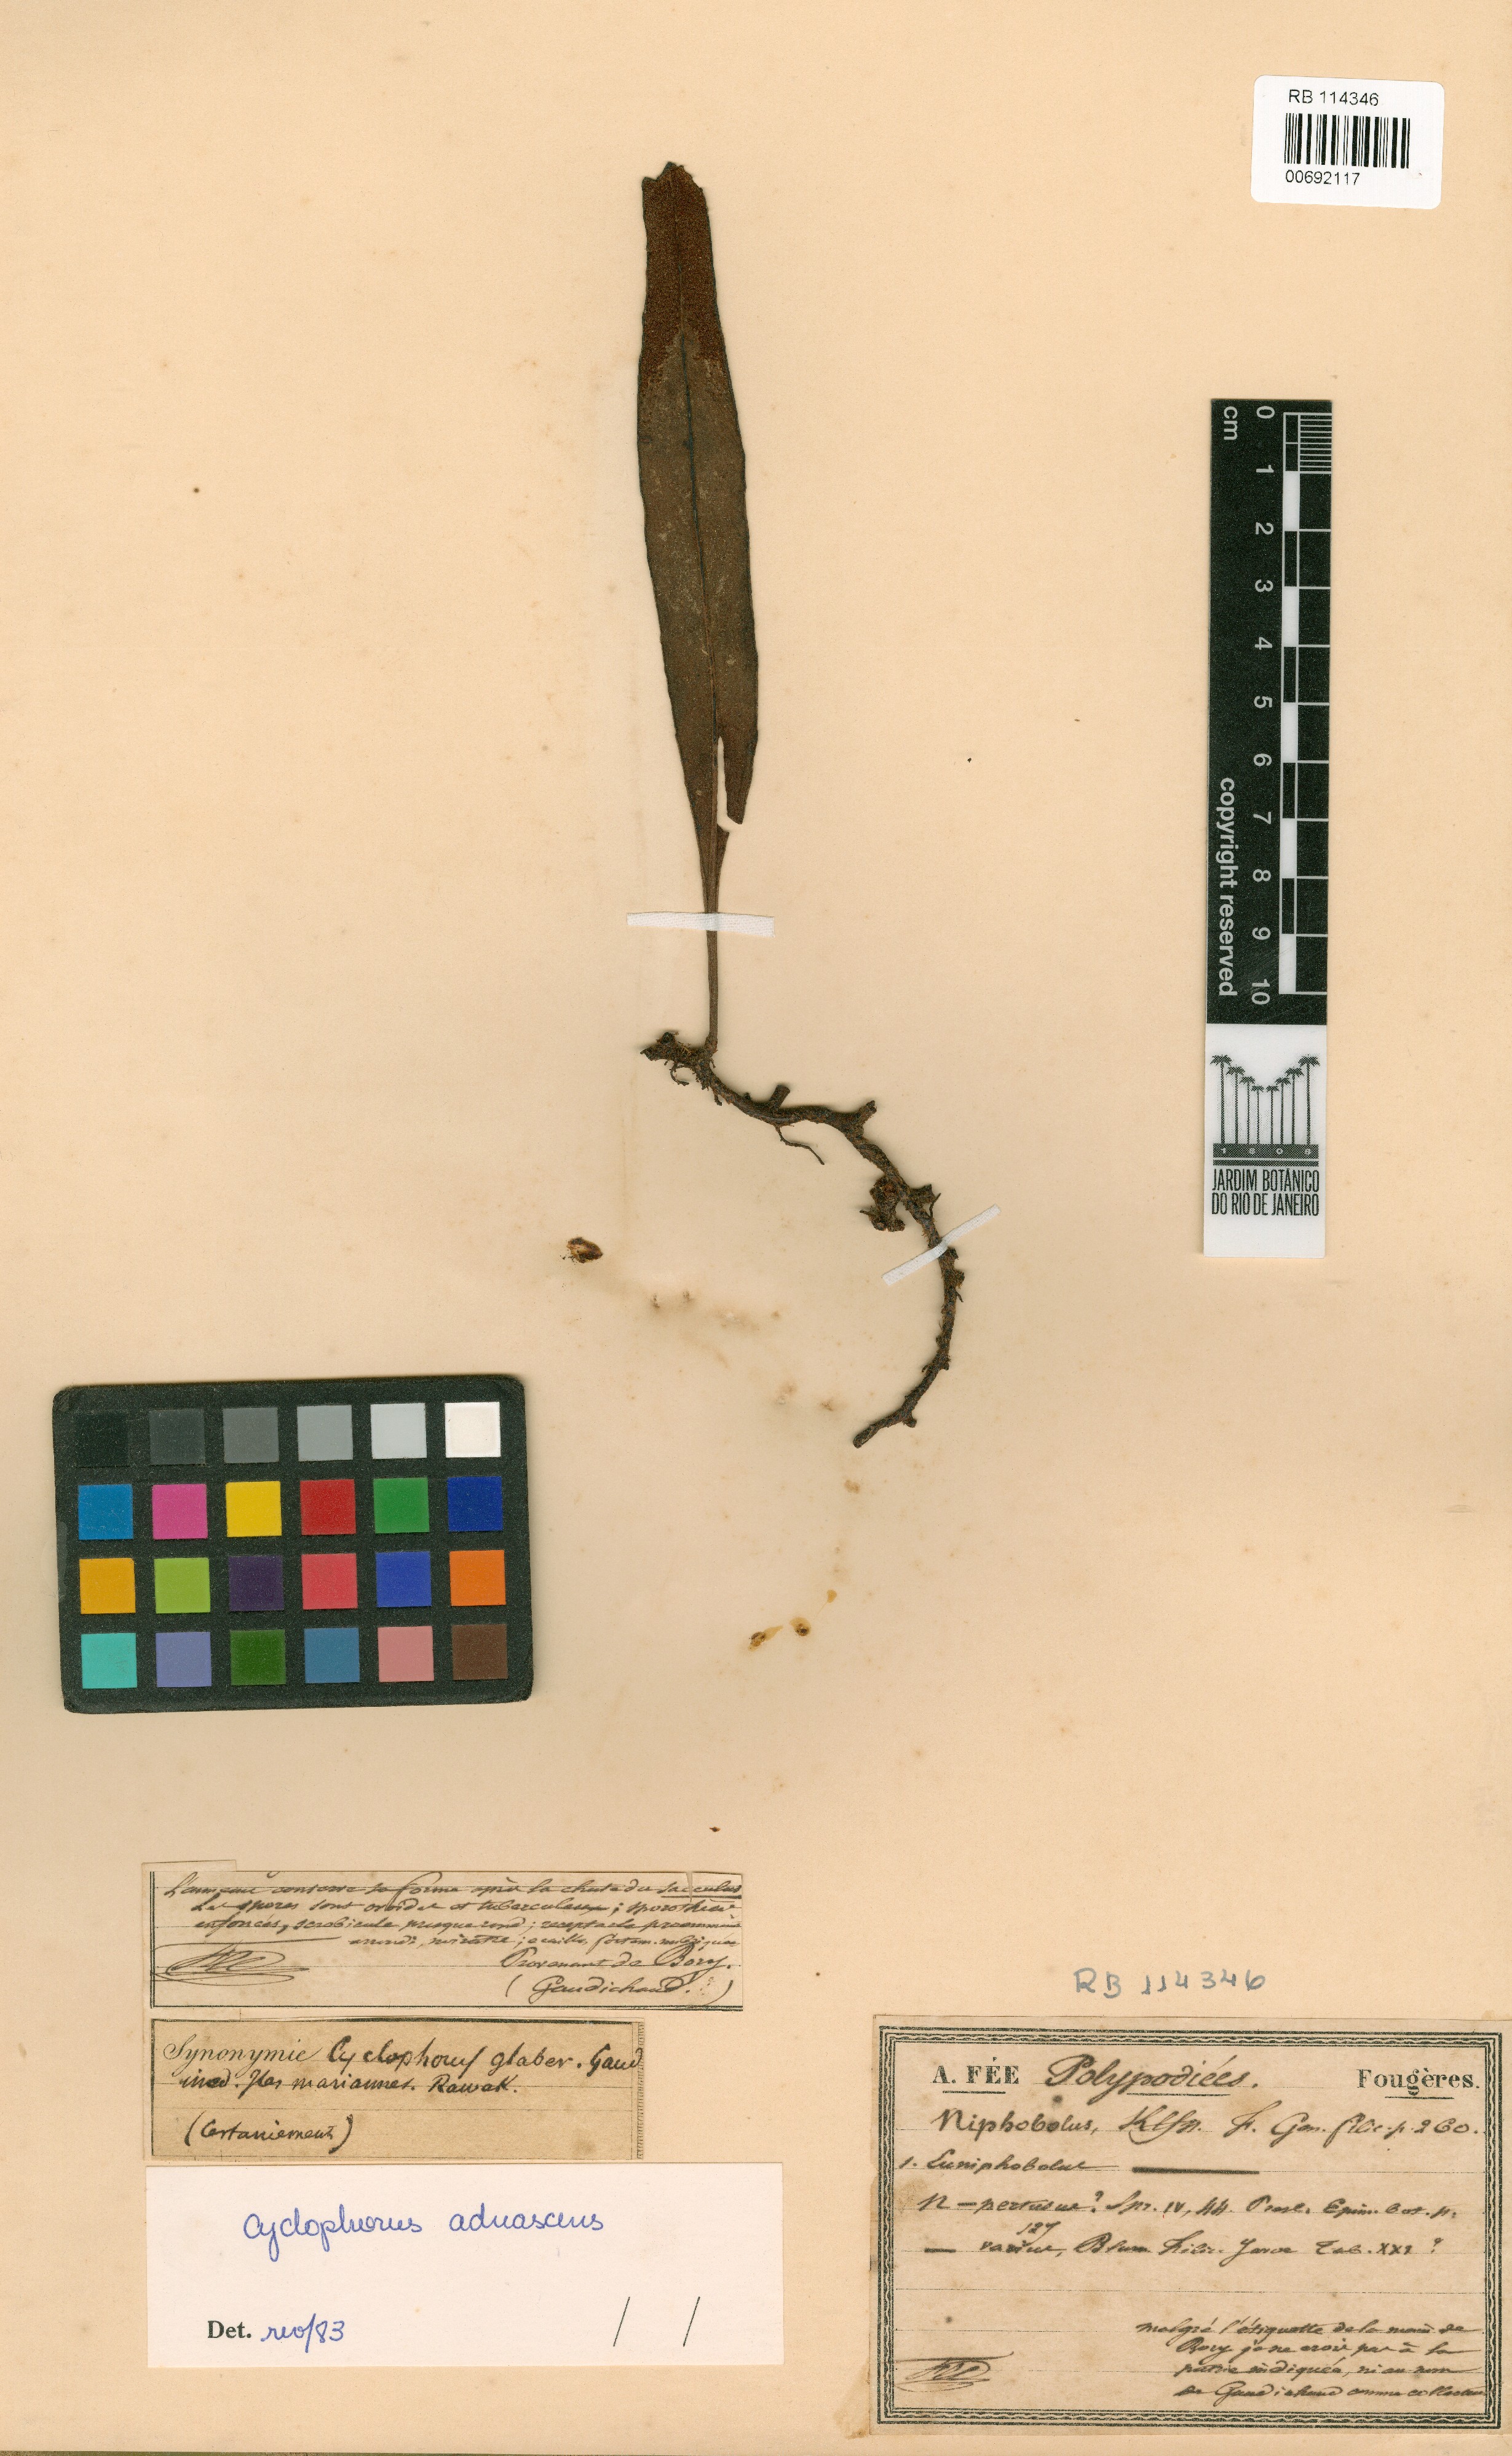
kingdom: Plantae
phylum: Tracheophyta
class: Polypodiopsida
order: Polypodiales
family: Polypodiaceae
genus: Pyrrosia
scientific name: Pyrrosia adnascens
